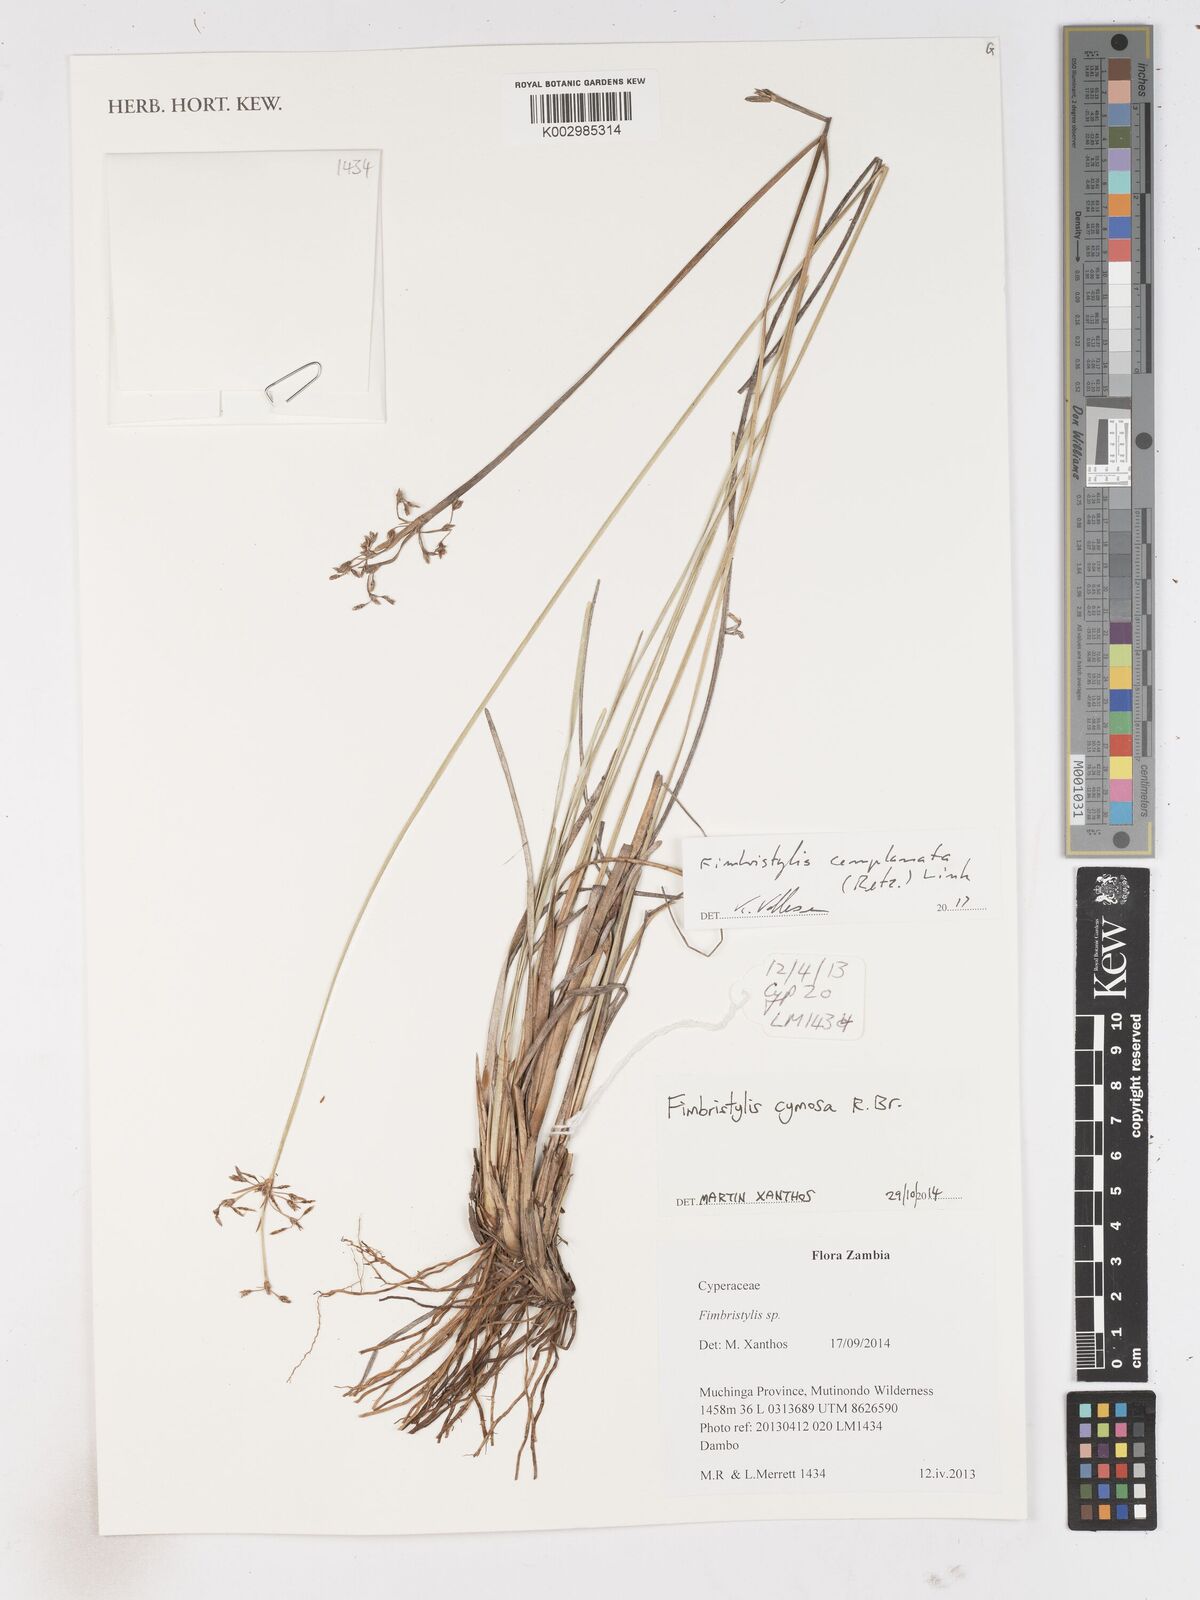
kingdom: Plantae
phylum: Tracheophyta
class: Liliopsida
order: Poales
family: Cyperaceae
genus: Fimbristylis
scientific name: Fimbristylis complanata
